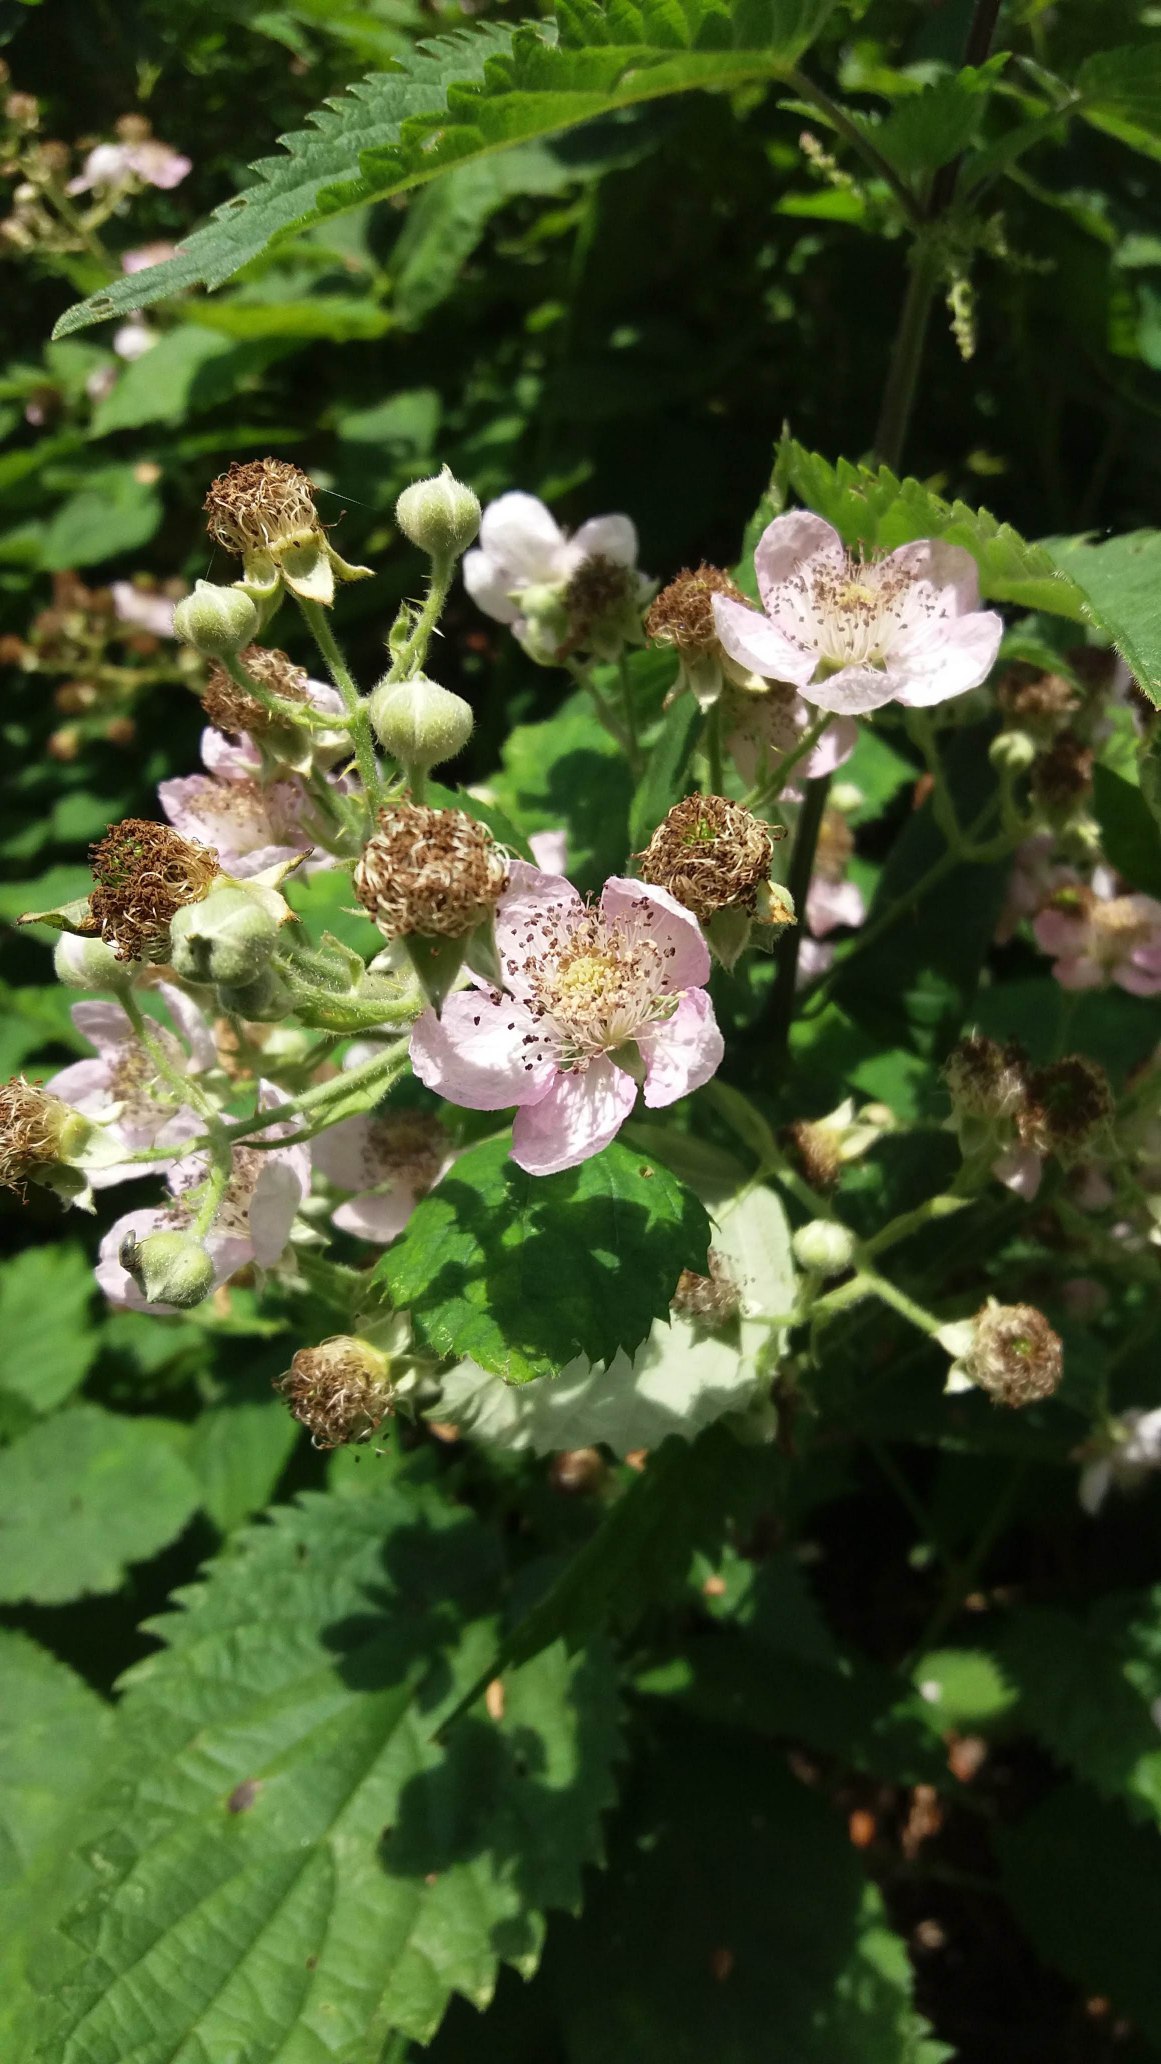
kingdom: Plantae
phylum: Tracheophyta
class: Magnoliopsida
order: Rosales
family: Rosaceae
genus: Rubus
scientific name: Rubus armeniacus
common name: Armensk brombær
